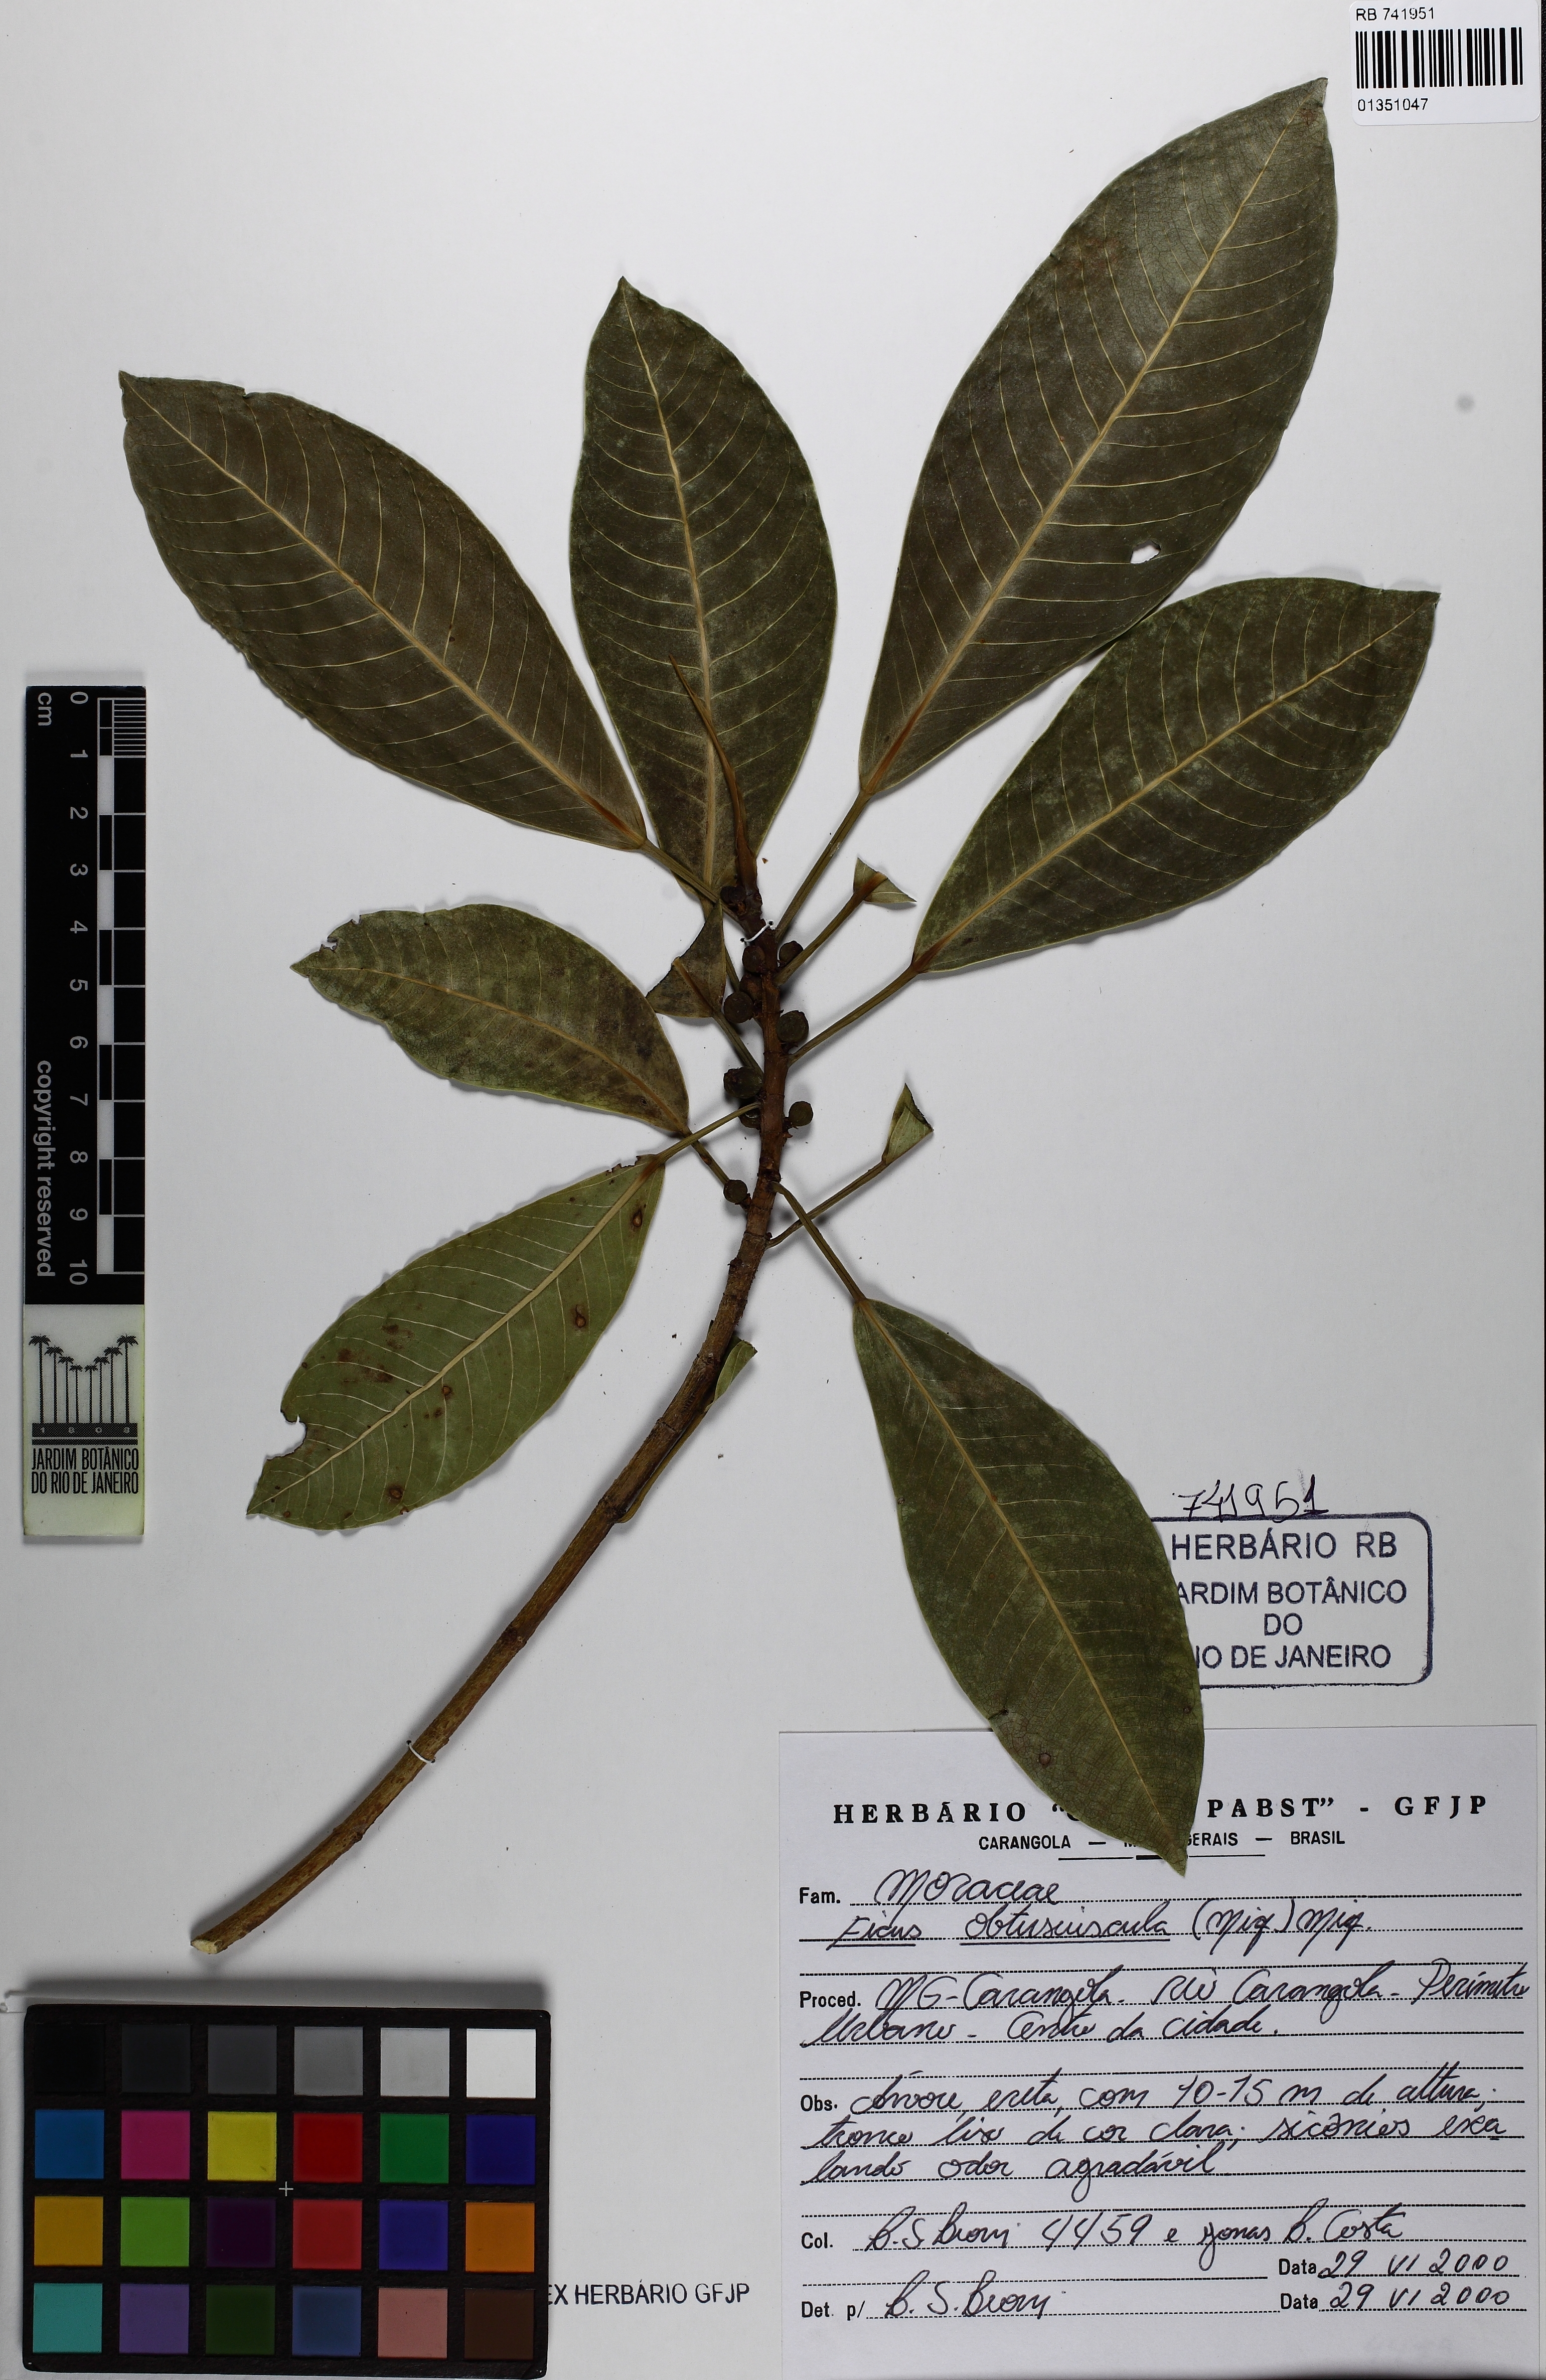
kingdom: Plantae
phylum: Tracheophyta
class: Magnoliopsida
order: Rosales
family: Moraceae
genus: Ficus
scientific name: Ficus obtusiuscula
